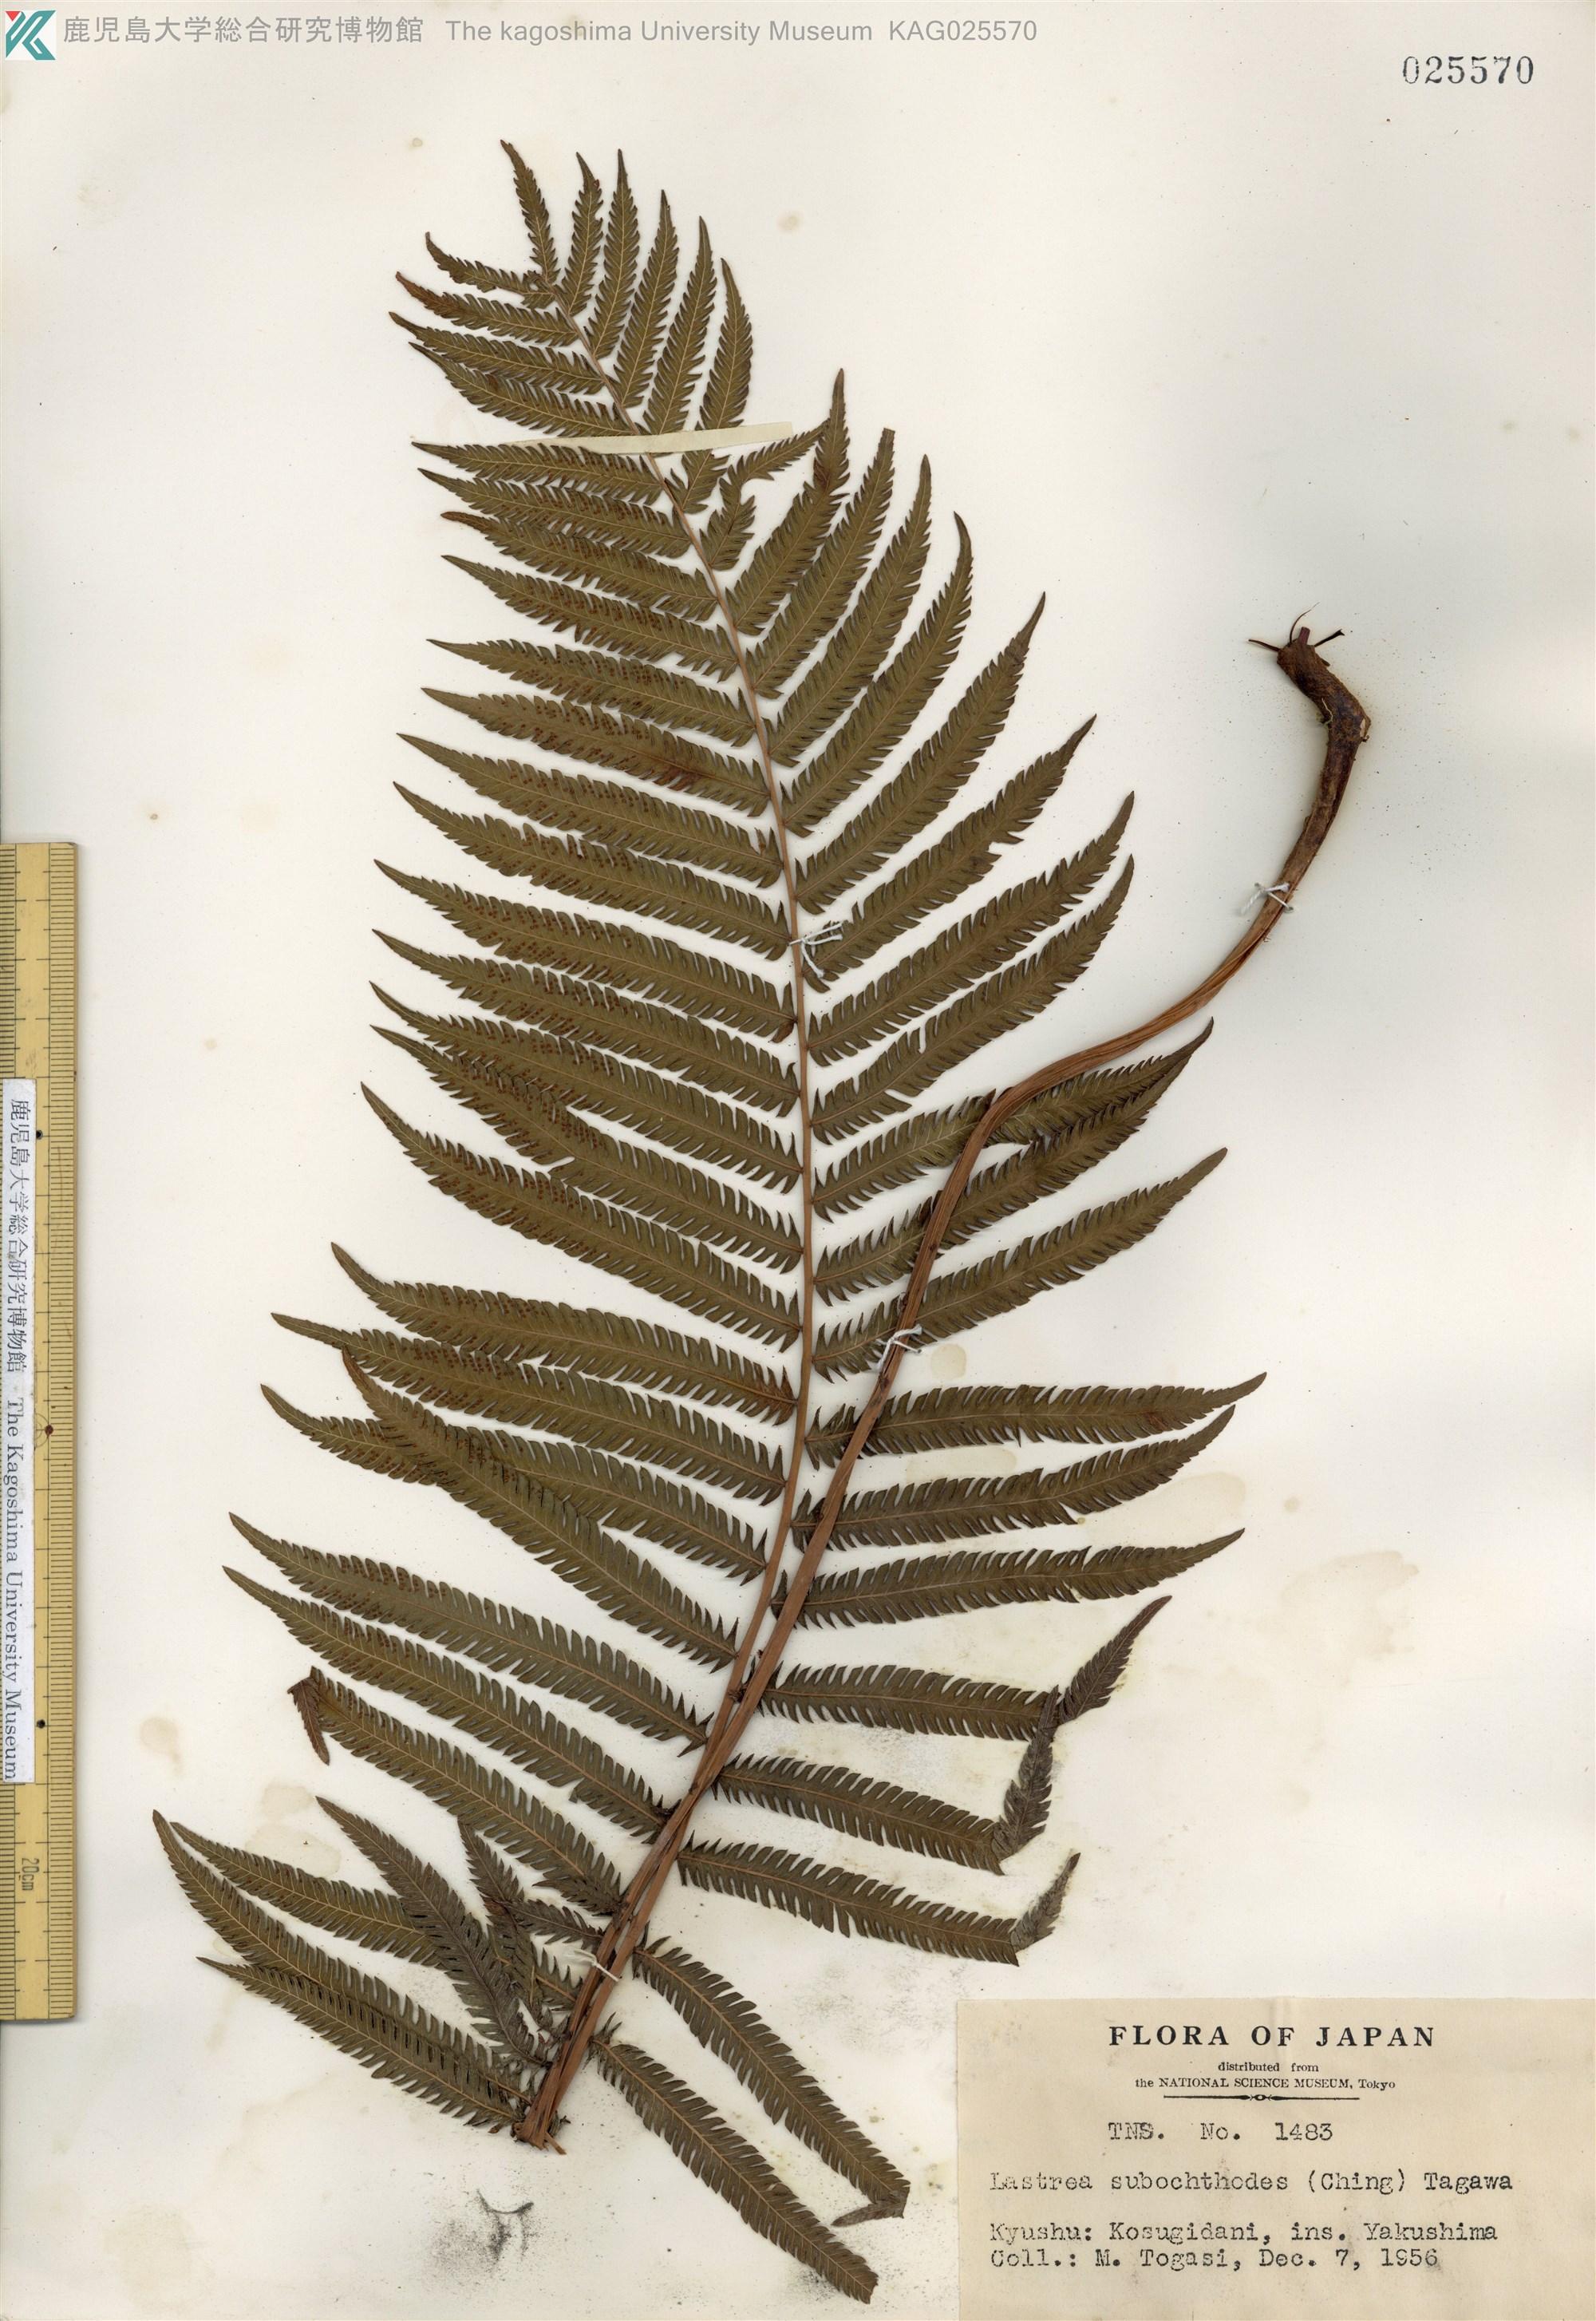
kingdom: Plantae
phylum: Tracheophyta
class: Polypodiopsida
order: Polypodiales
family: Thelypteridaceae
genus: Pseudocyclosorus
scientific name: Pseudocyclosorus esquirolii
